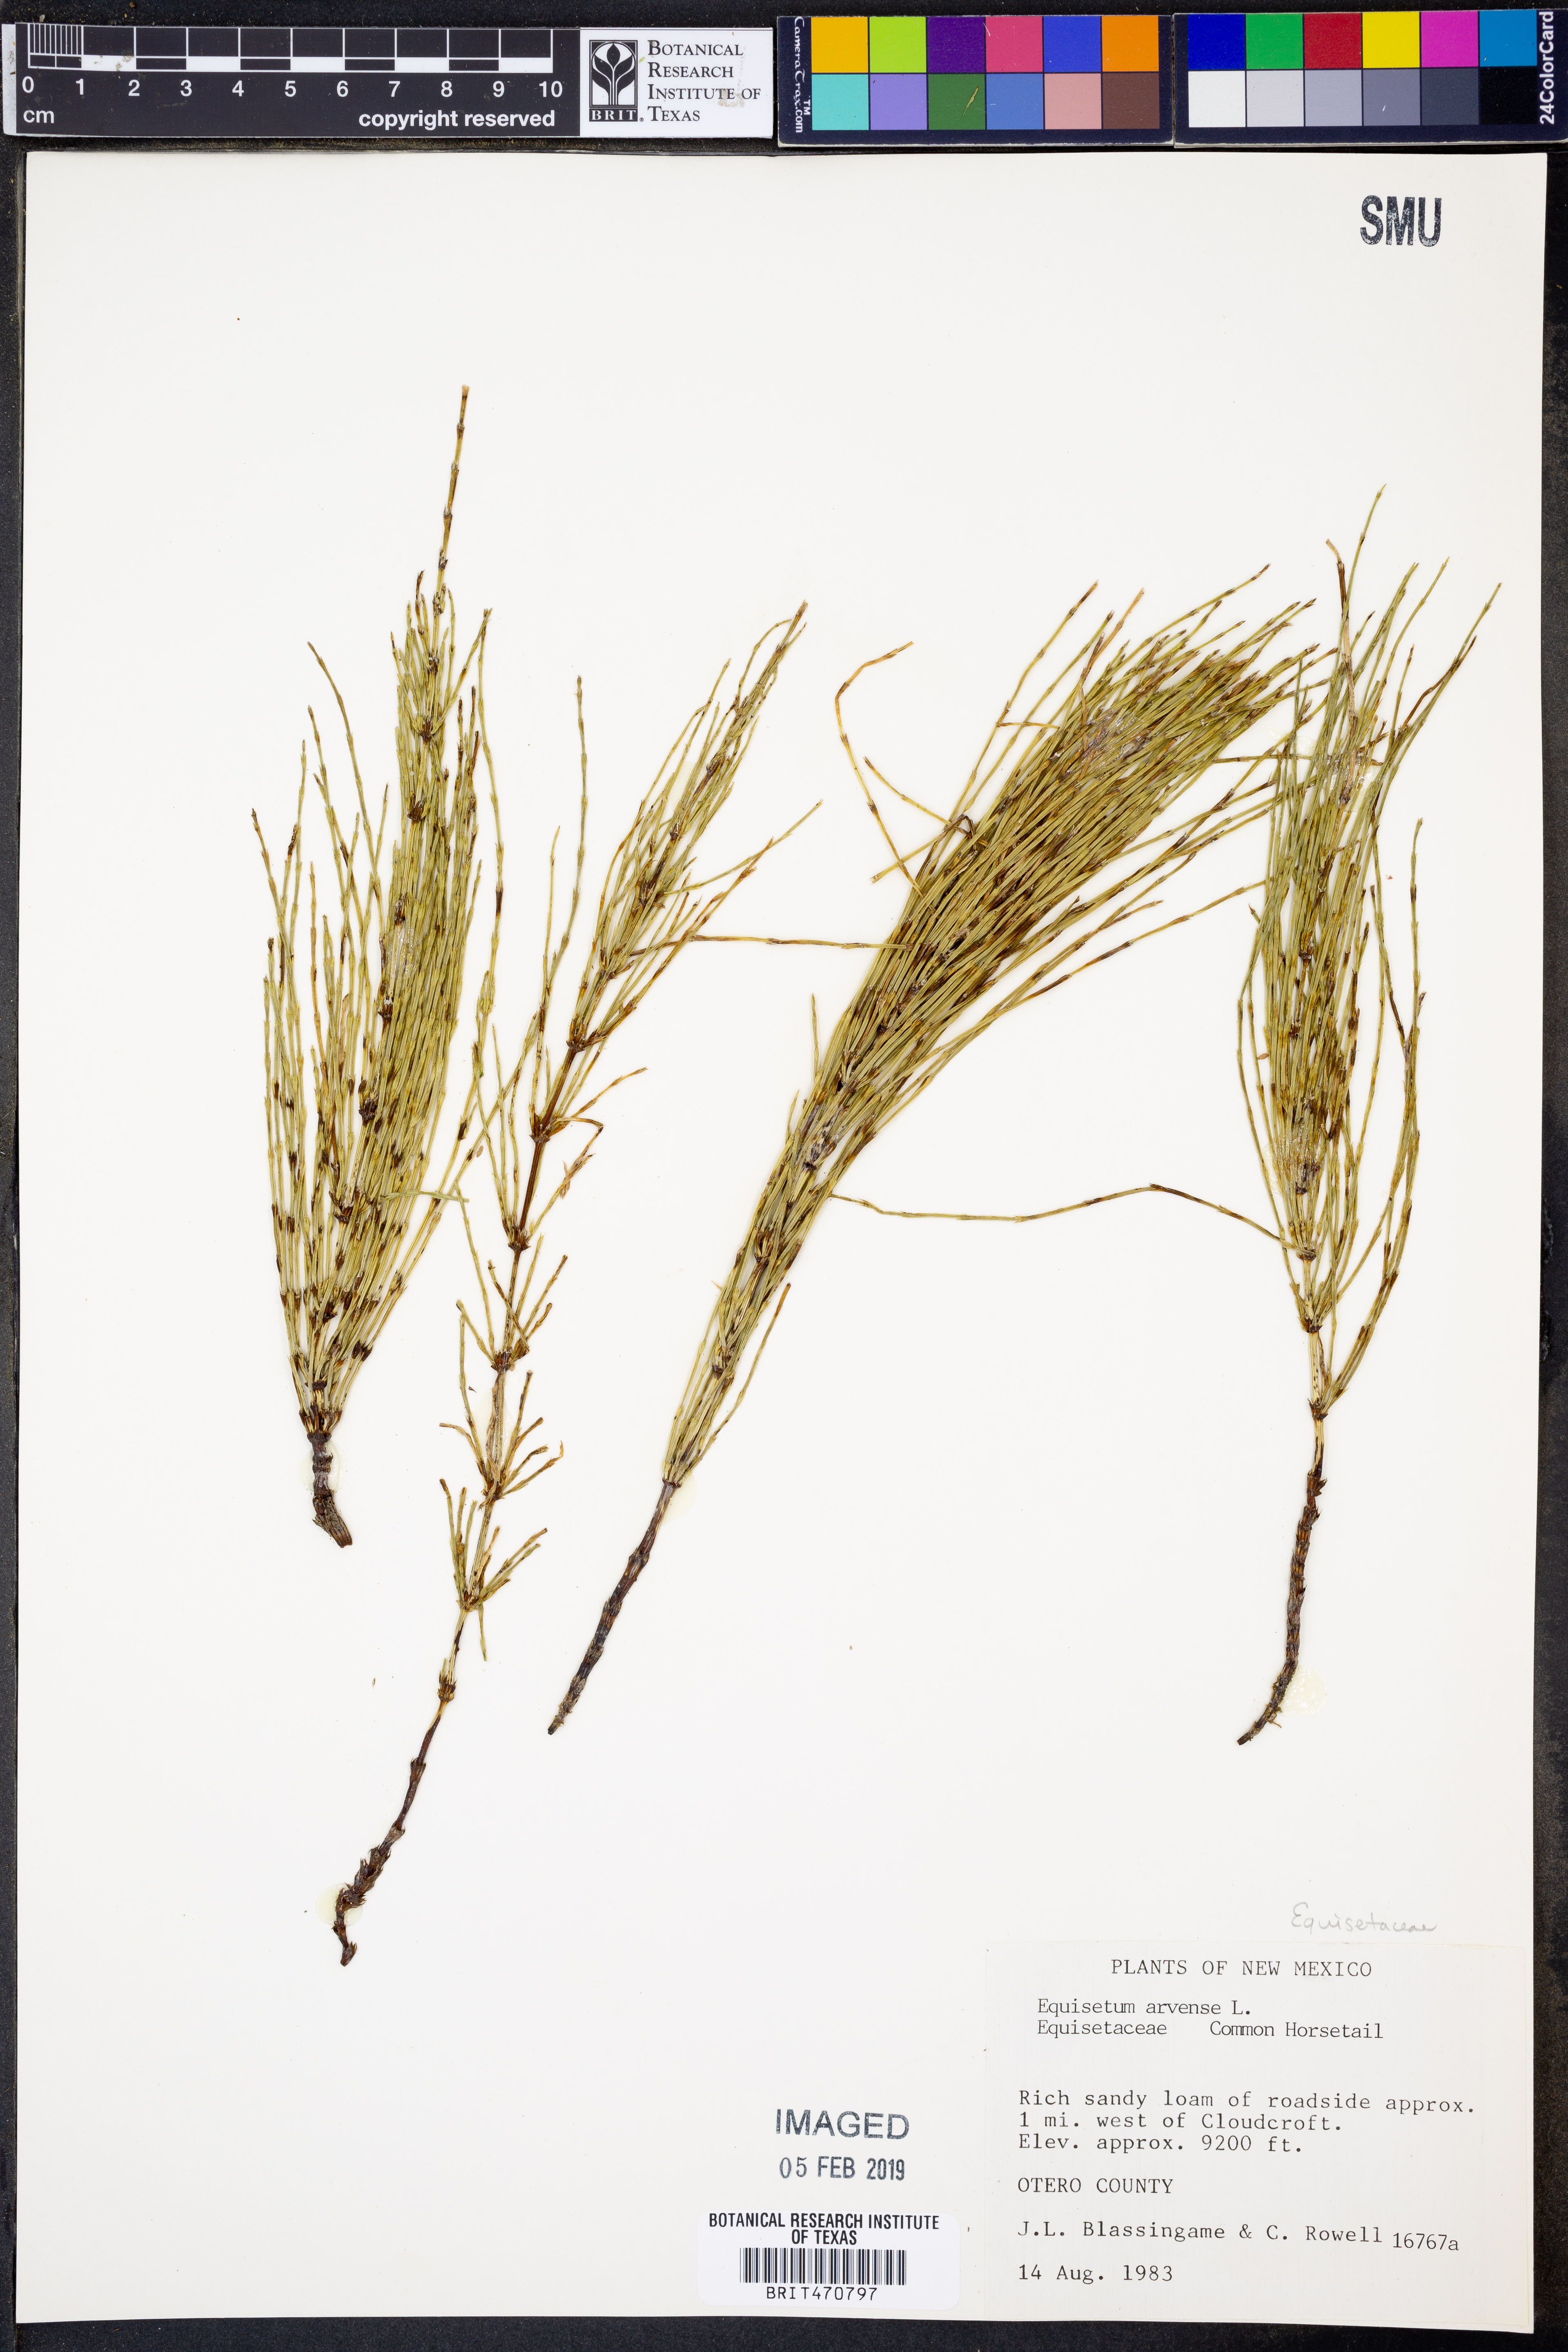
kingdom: Plantae
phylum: Tracheophyta
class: Polypodiopsida
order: Equisetales
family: Equisetaceae
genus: Equisetum
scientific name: Equisetum arvense
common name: Field horsetail
